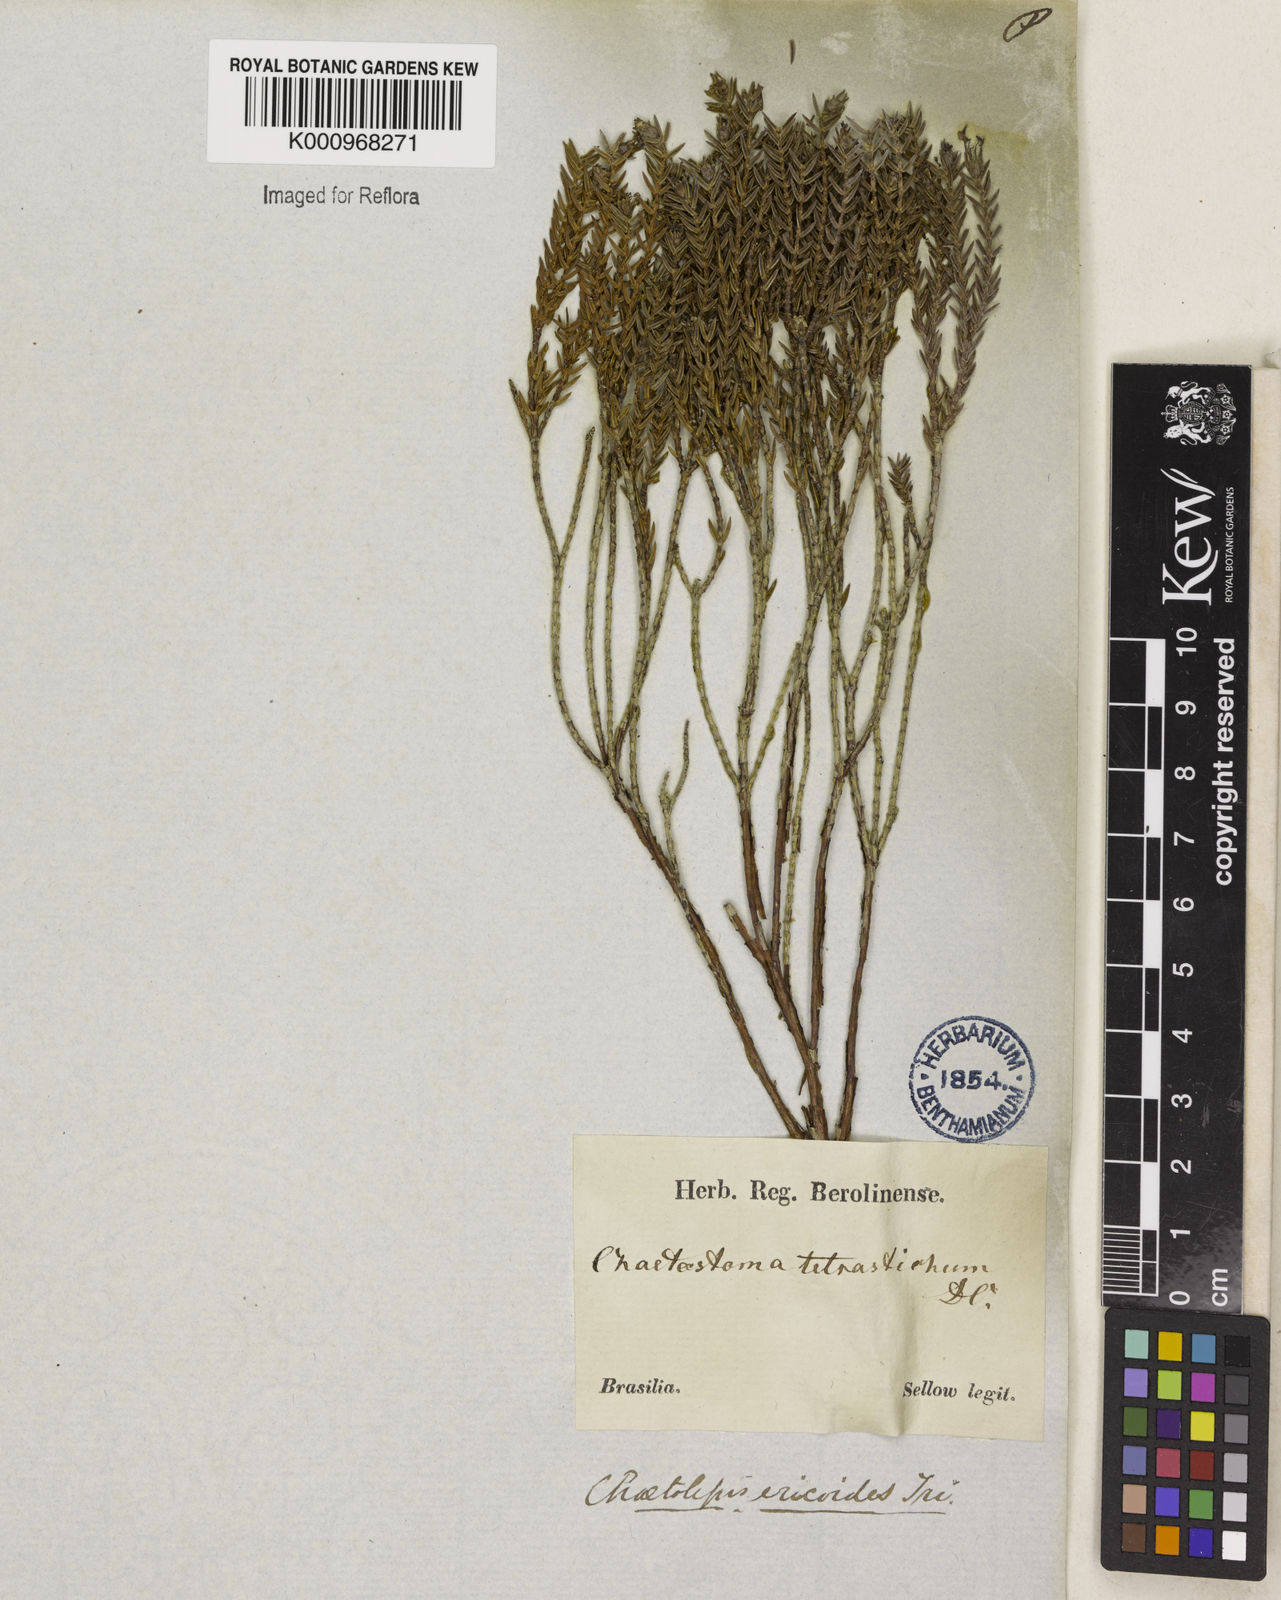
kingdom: Plantae
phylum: Tracheophyta
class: Magnoliopsida
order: Myrtales
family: Melastomataceae
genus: Marcetia
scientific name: Marcetia ericoides
